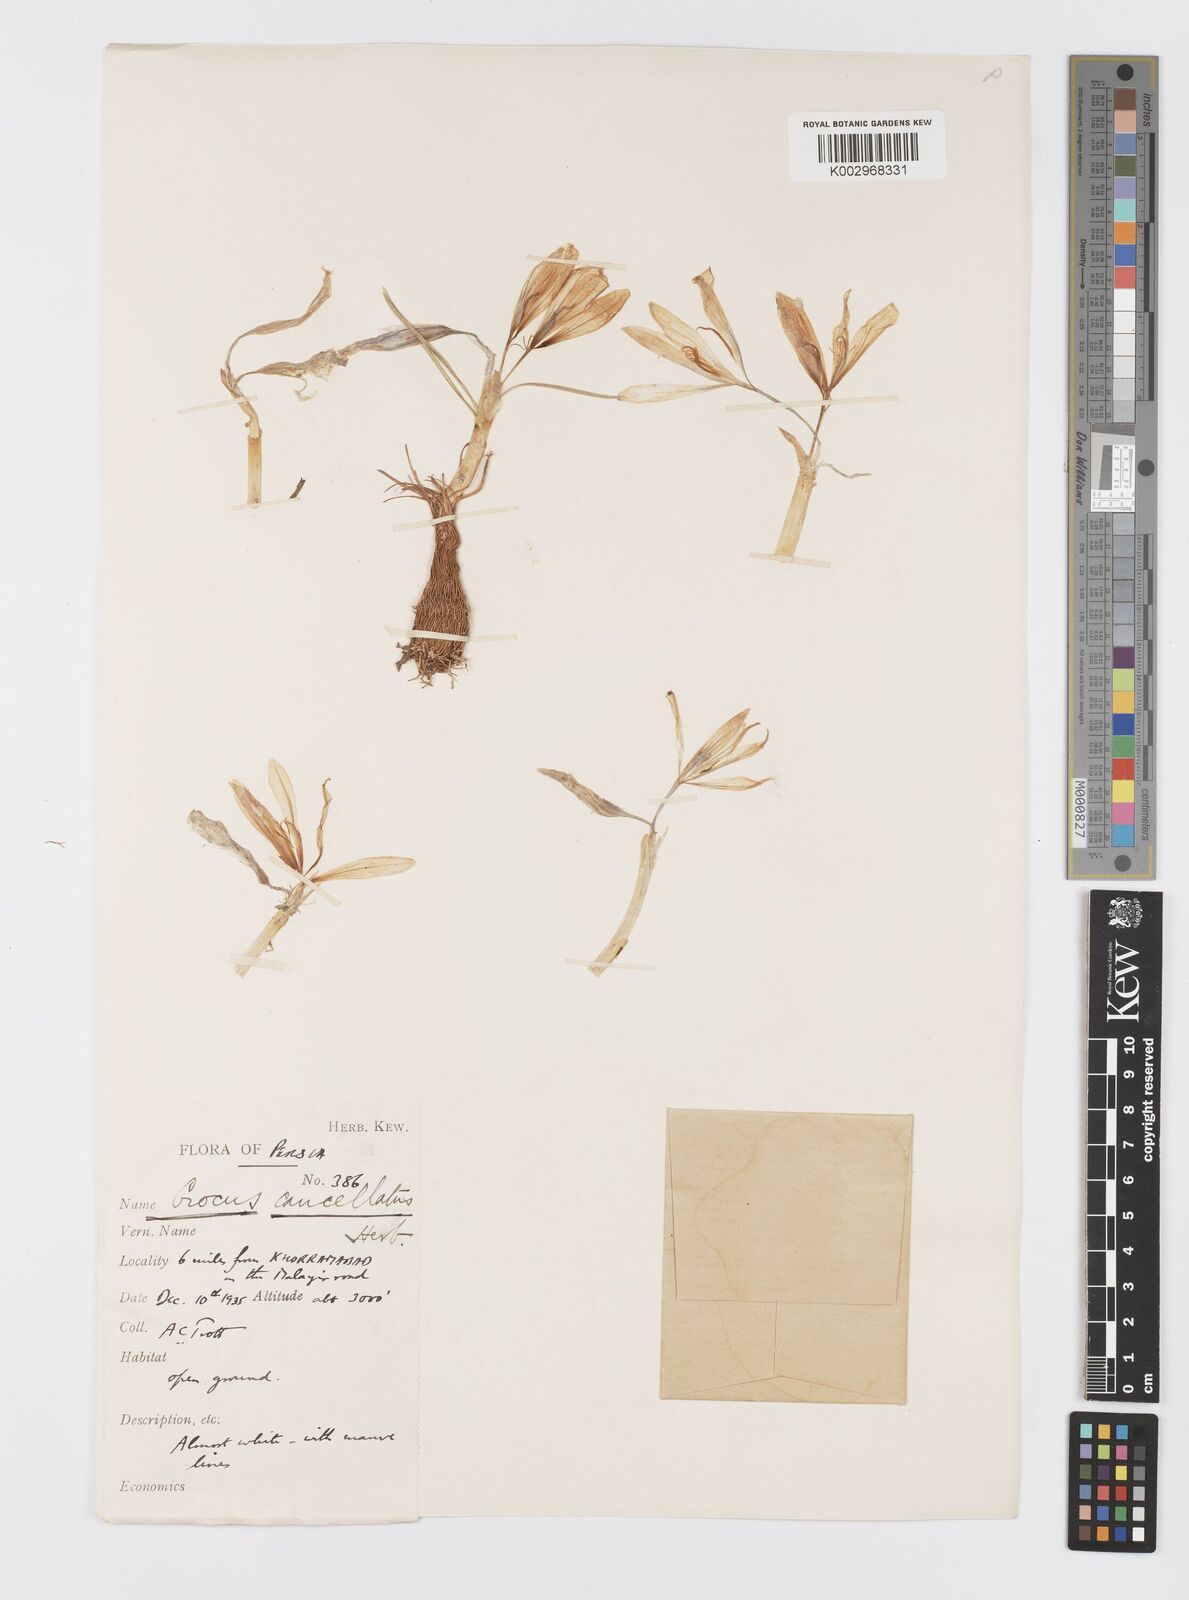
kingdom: Plantae
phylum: Tracheophyta
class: Liliopsida
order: Asparagales
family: Iridaceae
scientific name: Iridaceae
